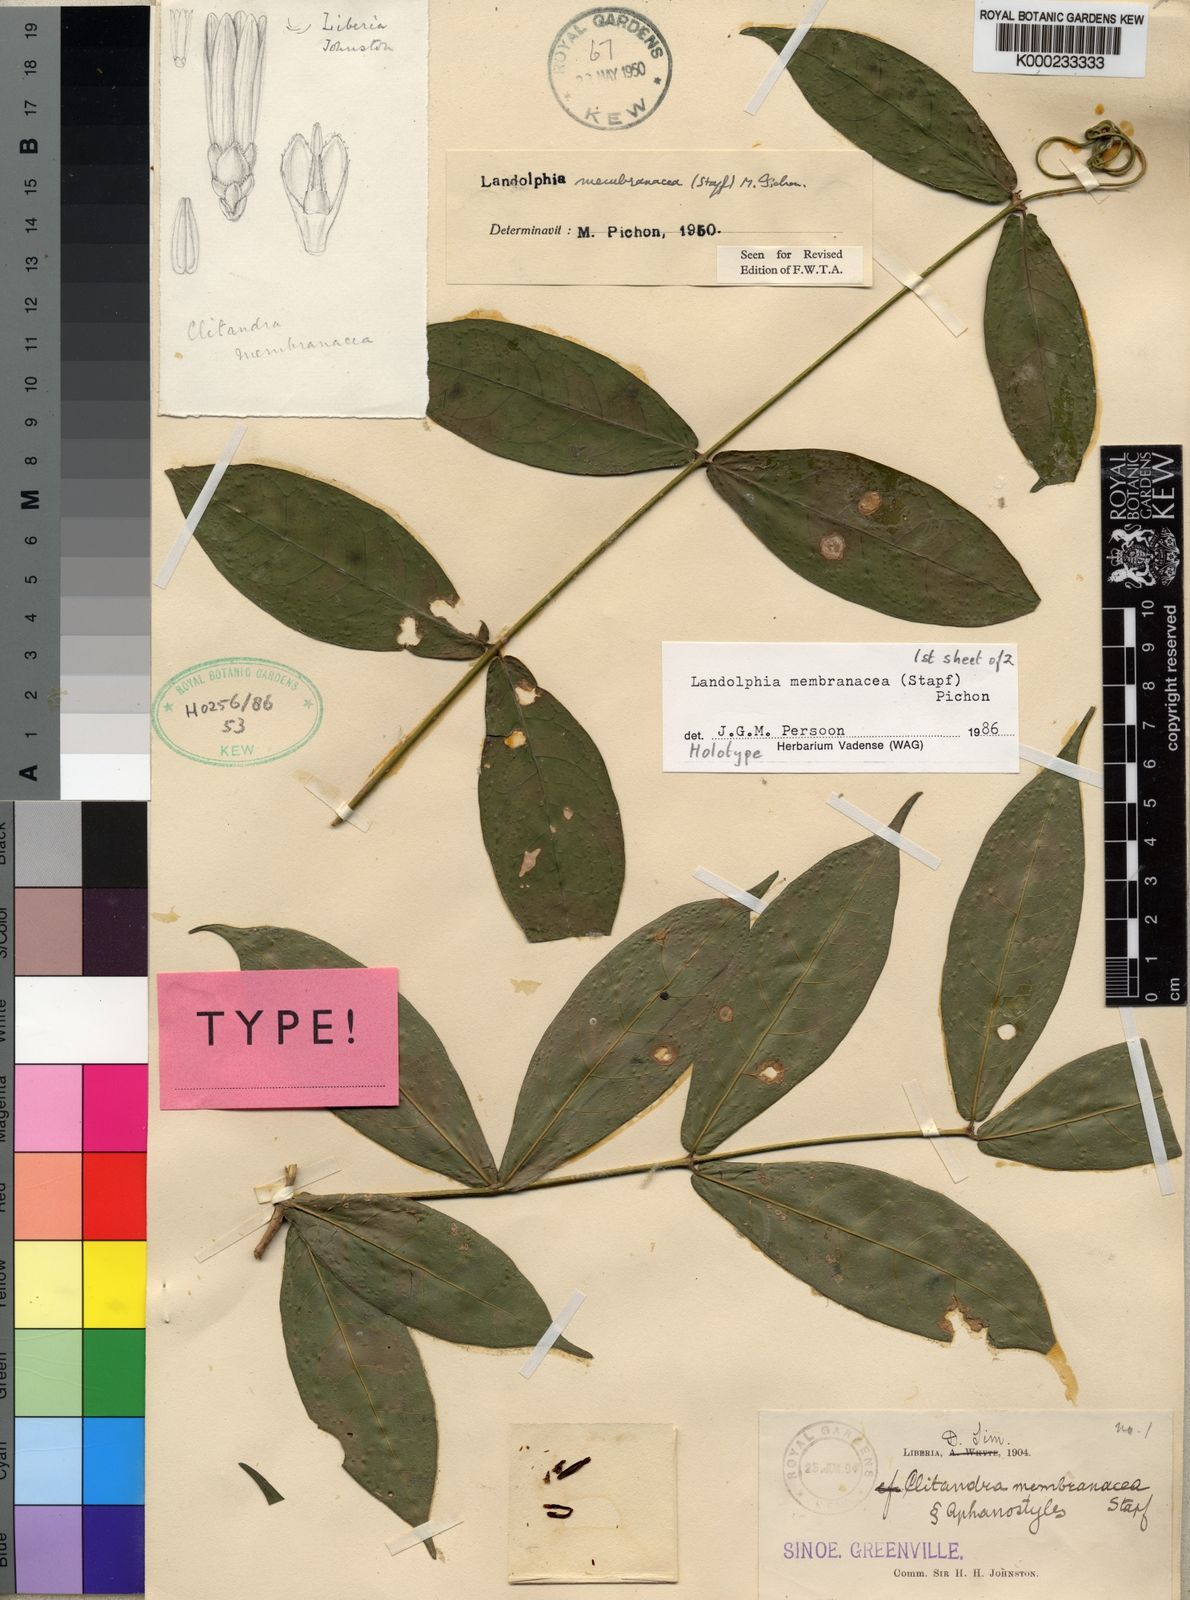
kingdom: Plantae
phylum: Tracheophyta
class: Magnoliopsida
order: Gentianales
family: Apocynaceae
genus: Landolphia
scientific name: Landolphia membranacea
